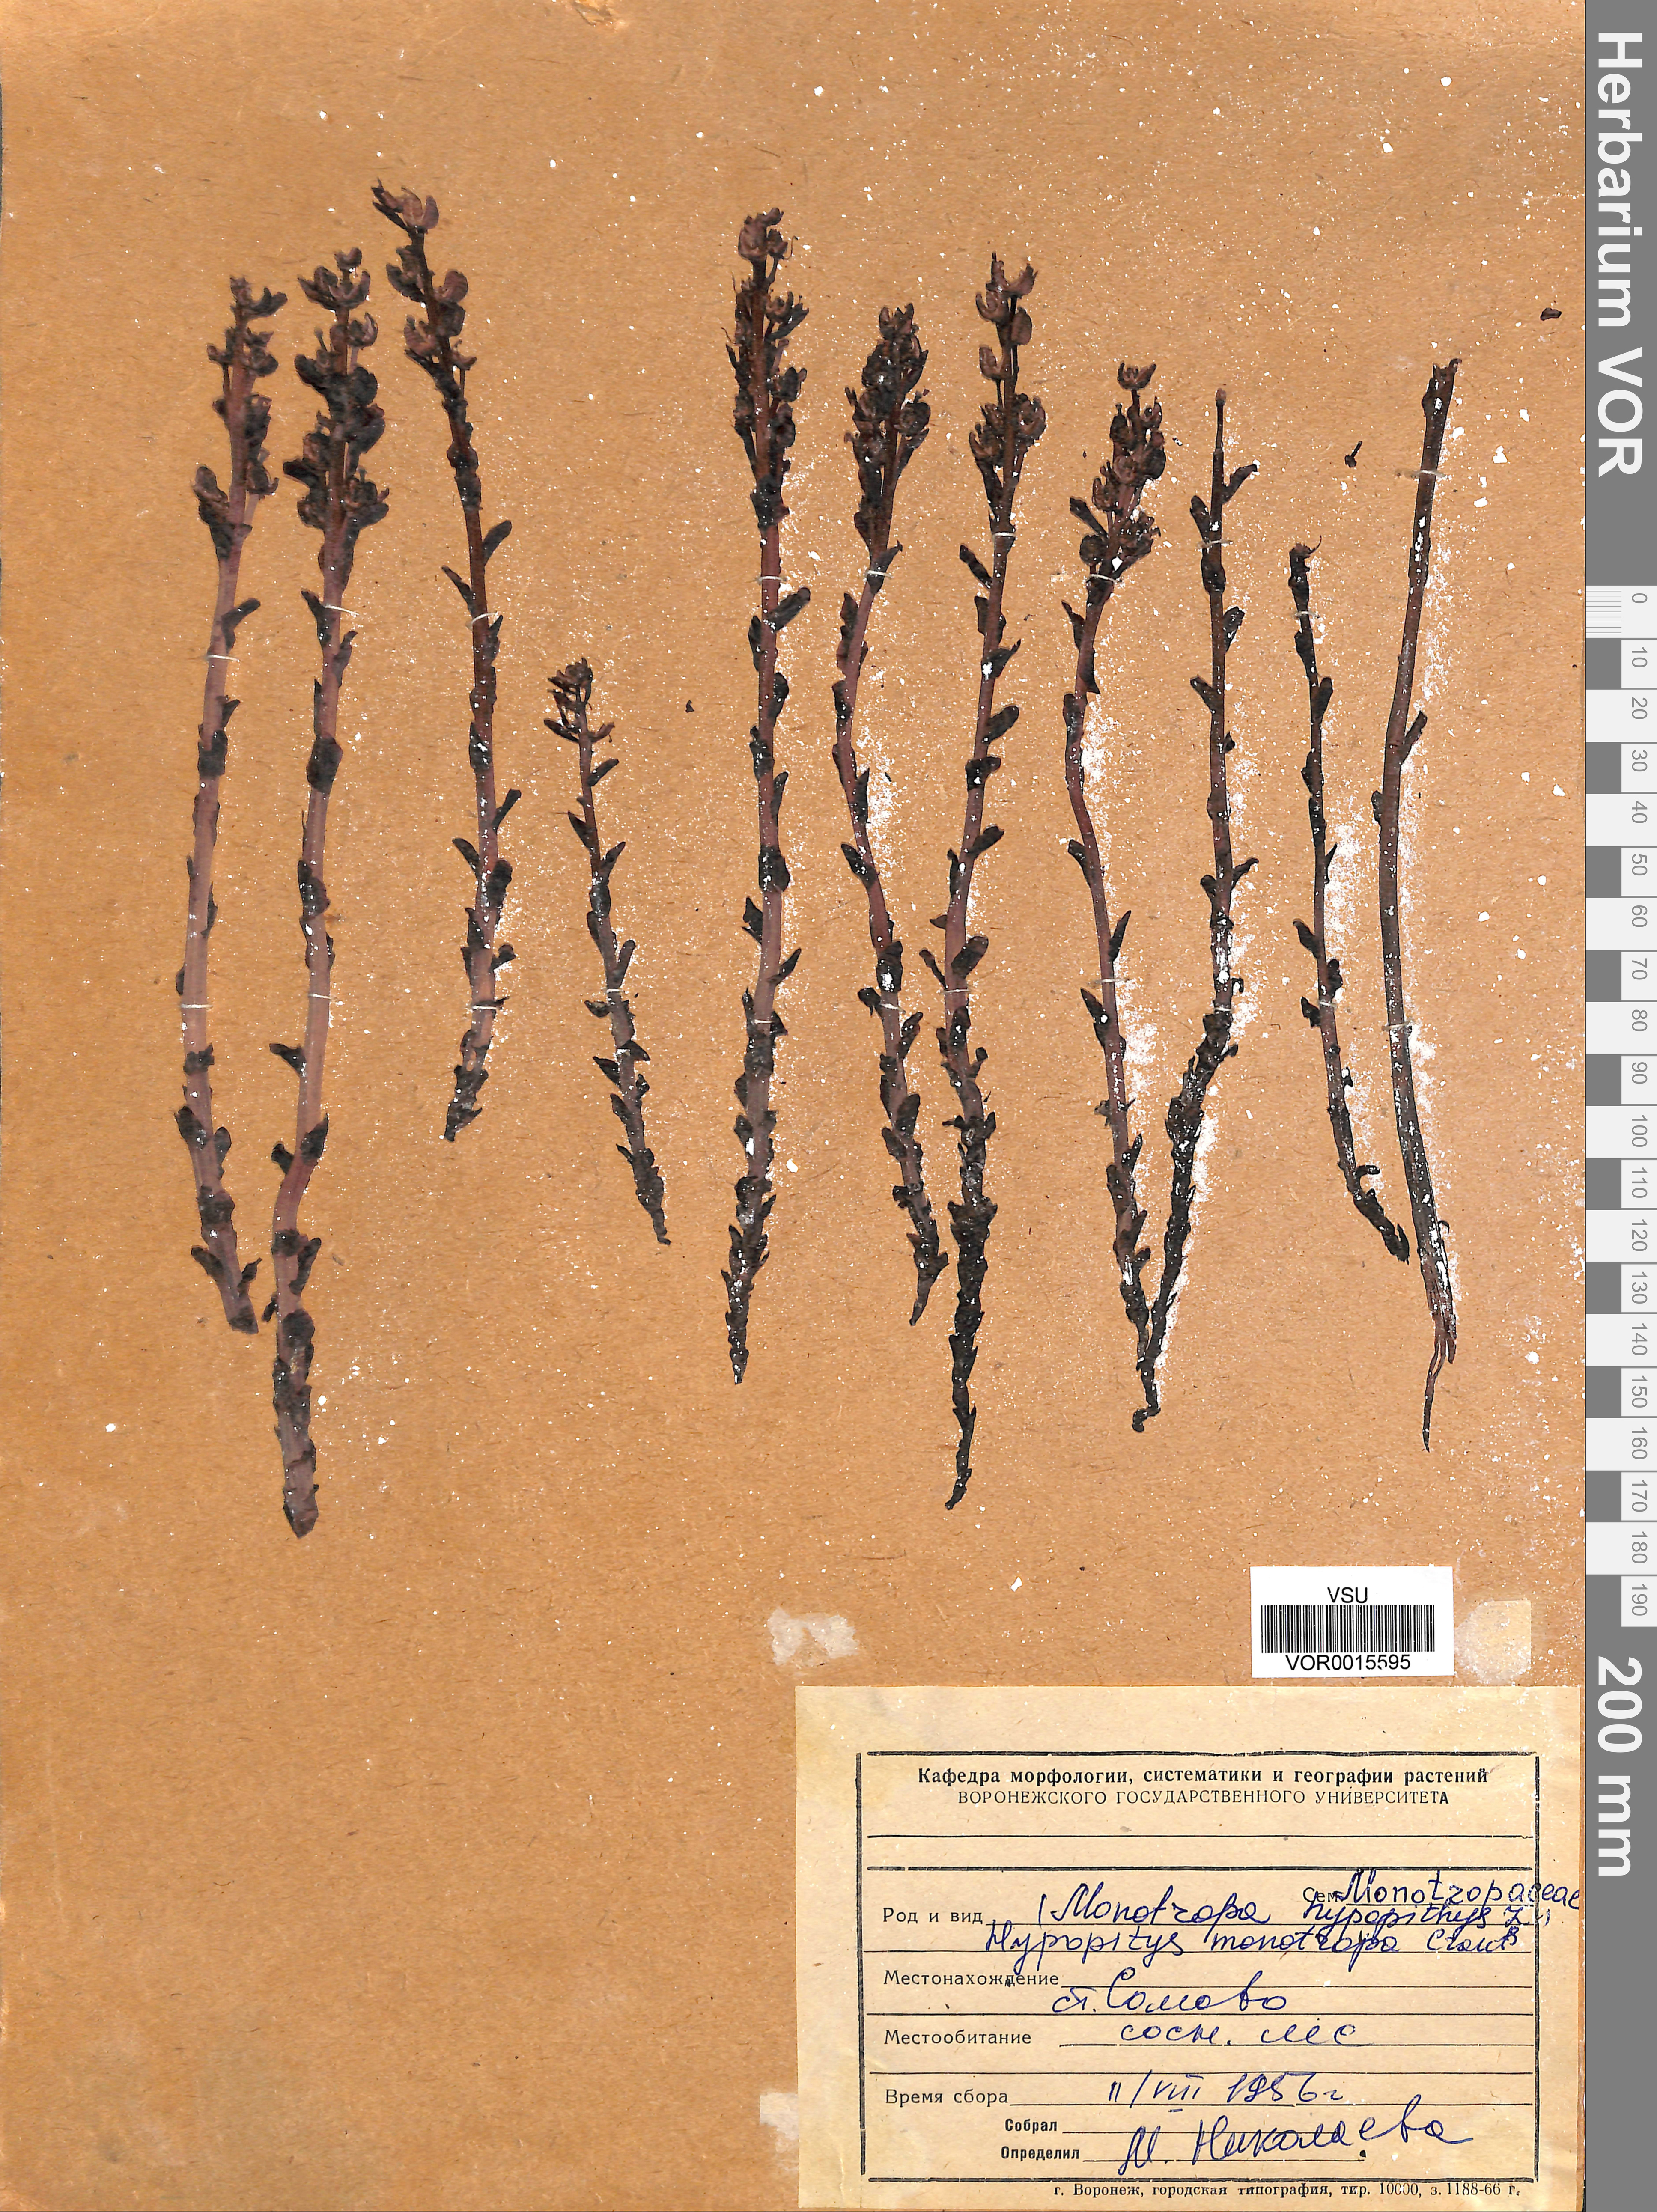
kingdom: Plantae
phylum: Tracheophyta
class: Magnoliopsida
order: Ericales
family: Ericaceae
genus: Hypopitys
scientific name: Hypopitys monotropa
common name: Yellow bird's-nest
